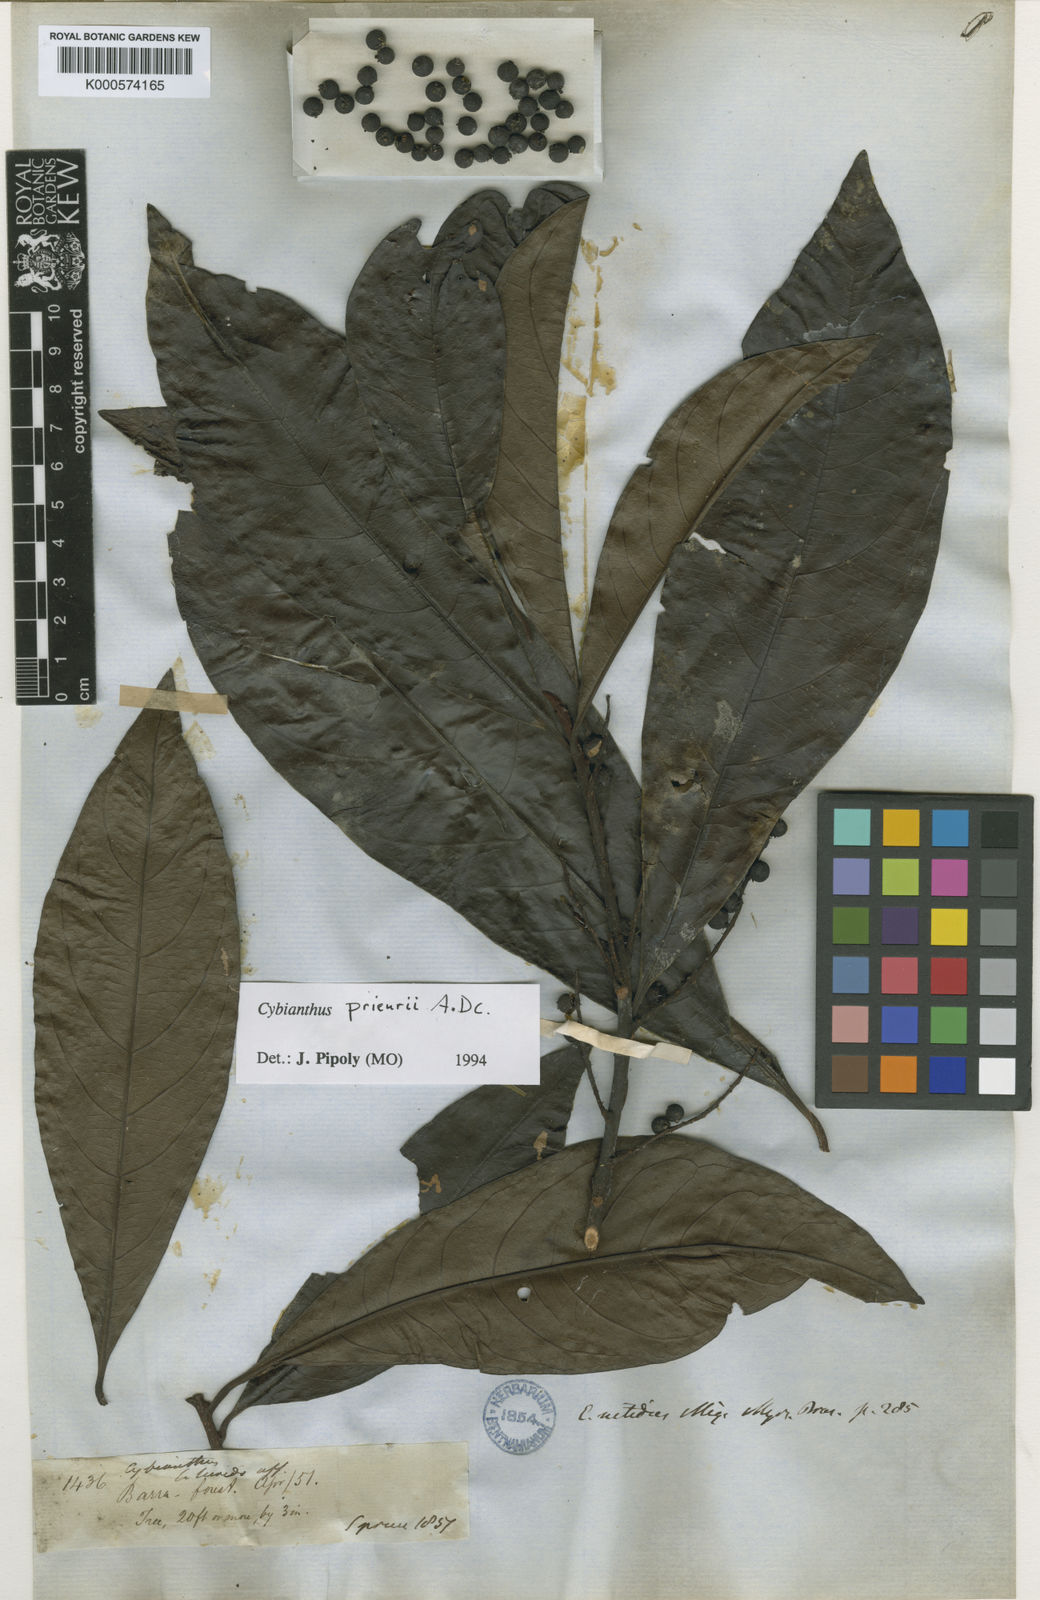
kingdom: Plantae
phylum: Tracheophyta
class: Magnoliopsida
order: Ericales
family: Primulaceae
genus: Cybianthus
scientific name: Cybianthus prieurii
